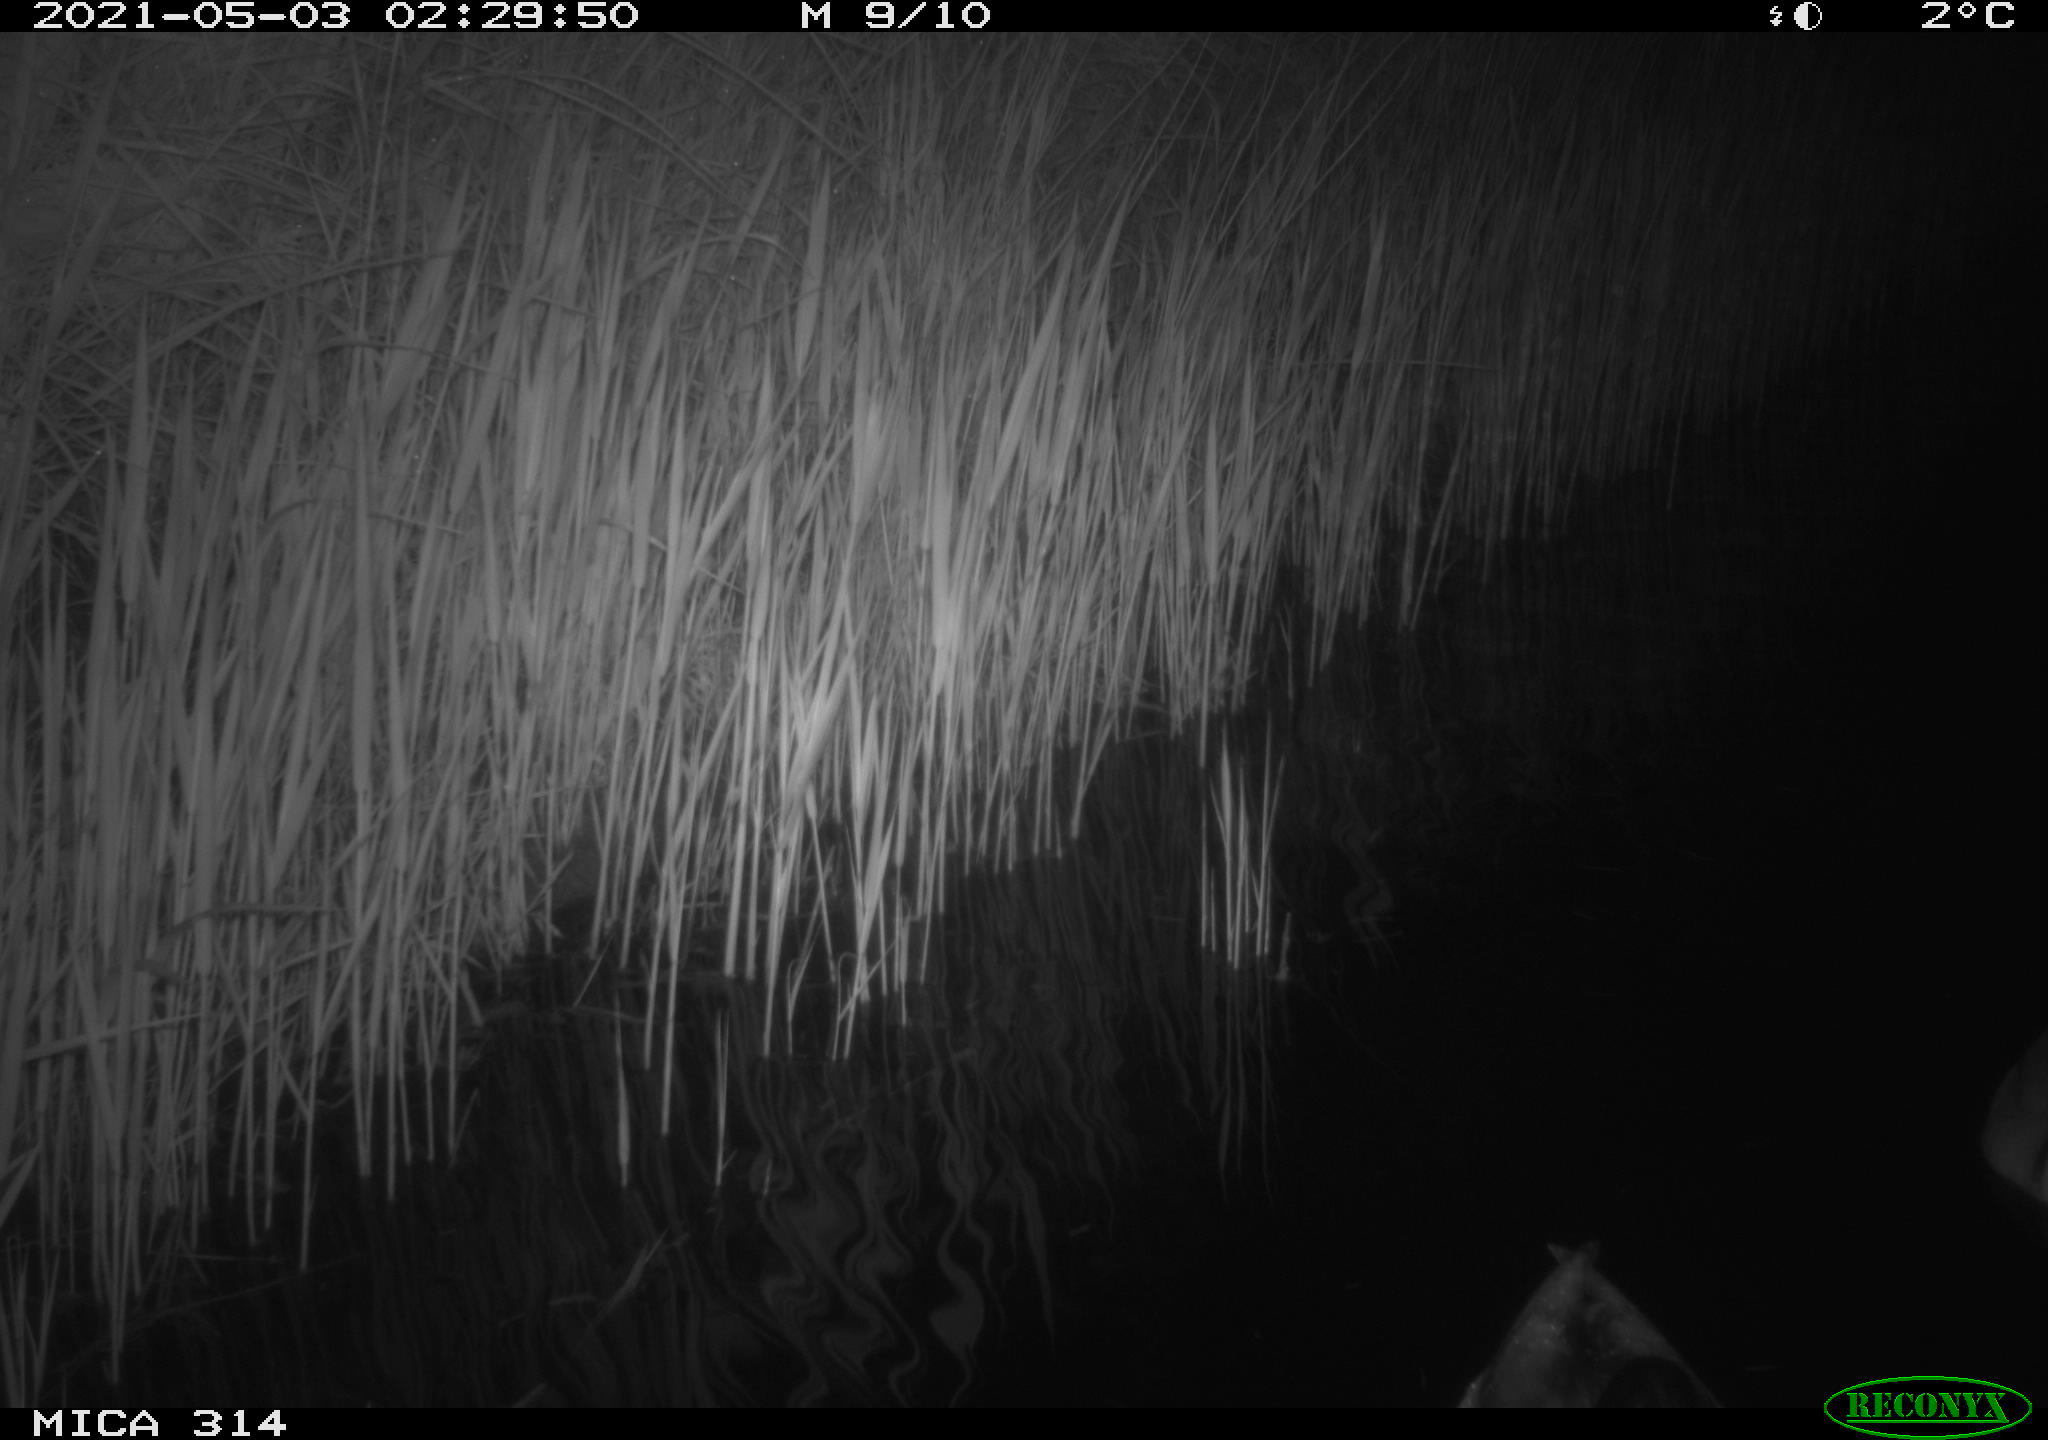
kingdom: Animalia
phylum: Chordata
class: Aves
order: Anseriformes
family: Anatidae
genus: Anas
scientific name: Anas platyrhynchos
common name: Mallard
